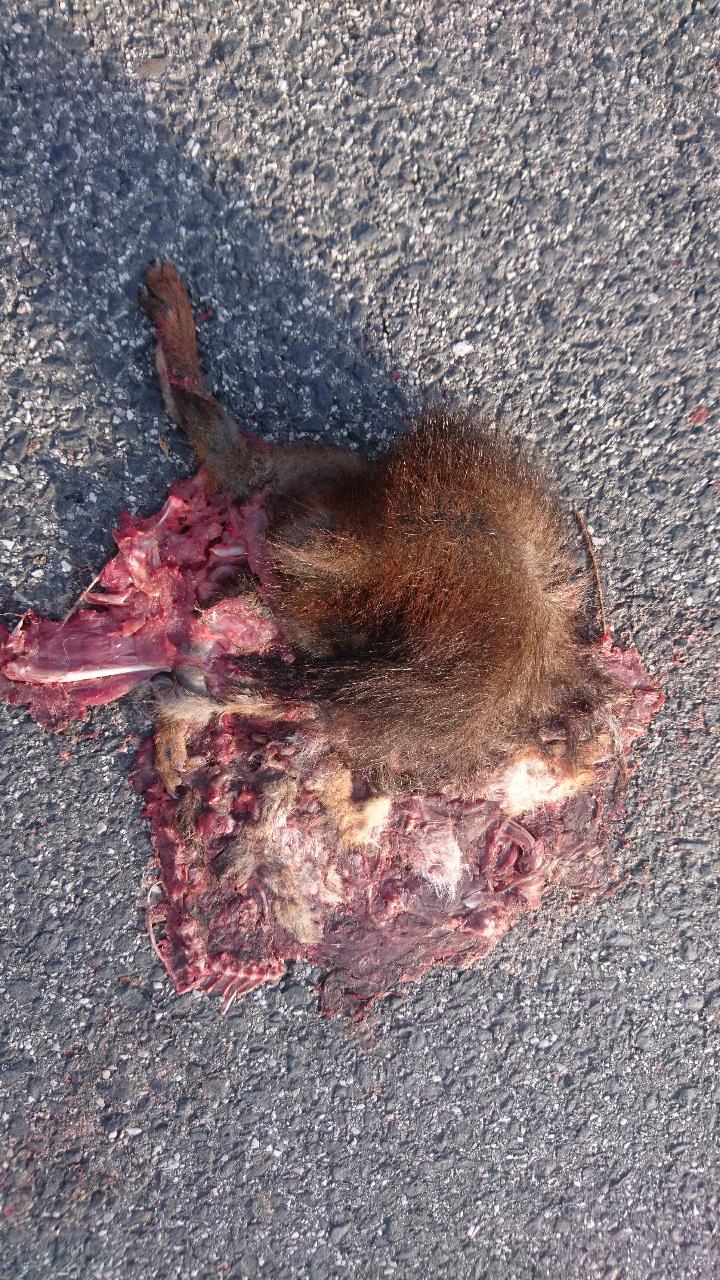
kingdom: Animalia
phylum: Chordata
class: Mammalia
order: Rodentia
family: Sciuridae
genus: Sciurus
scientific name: Sciurus vulgaris
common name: Eurasian red squirrel
